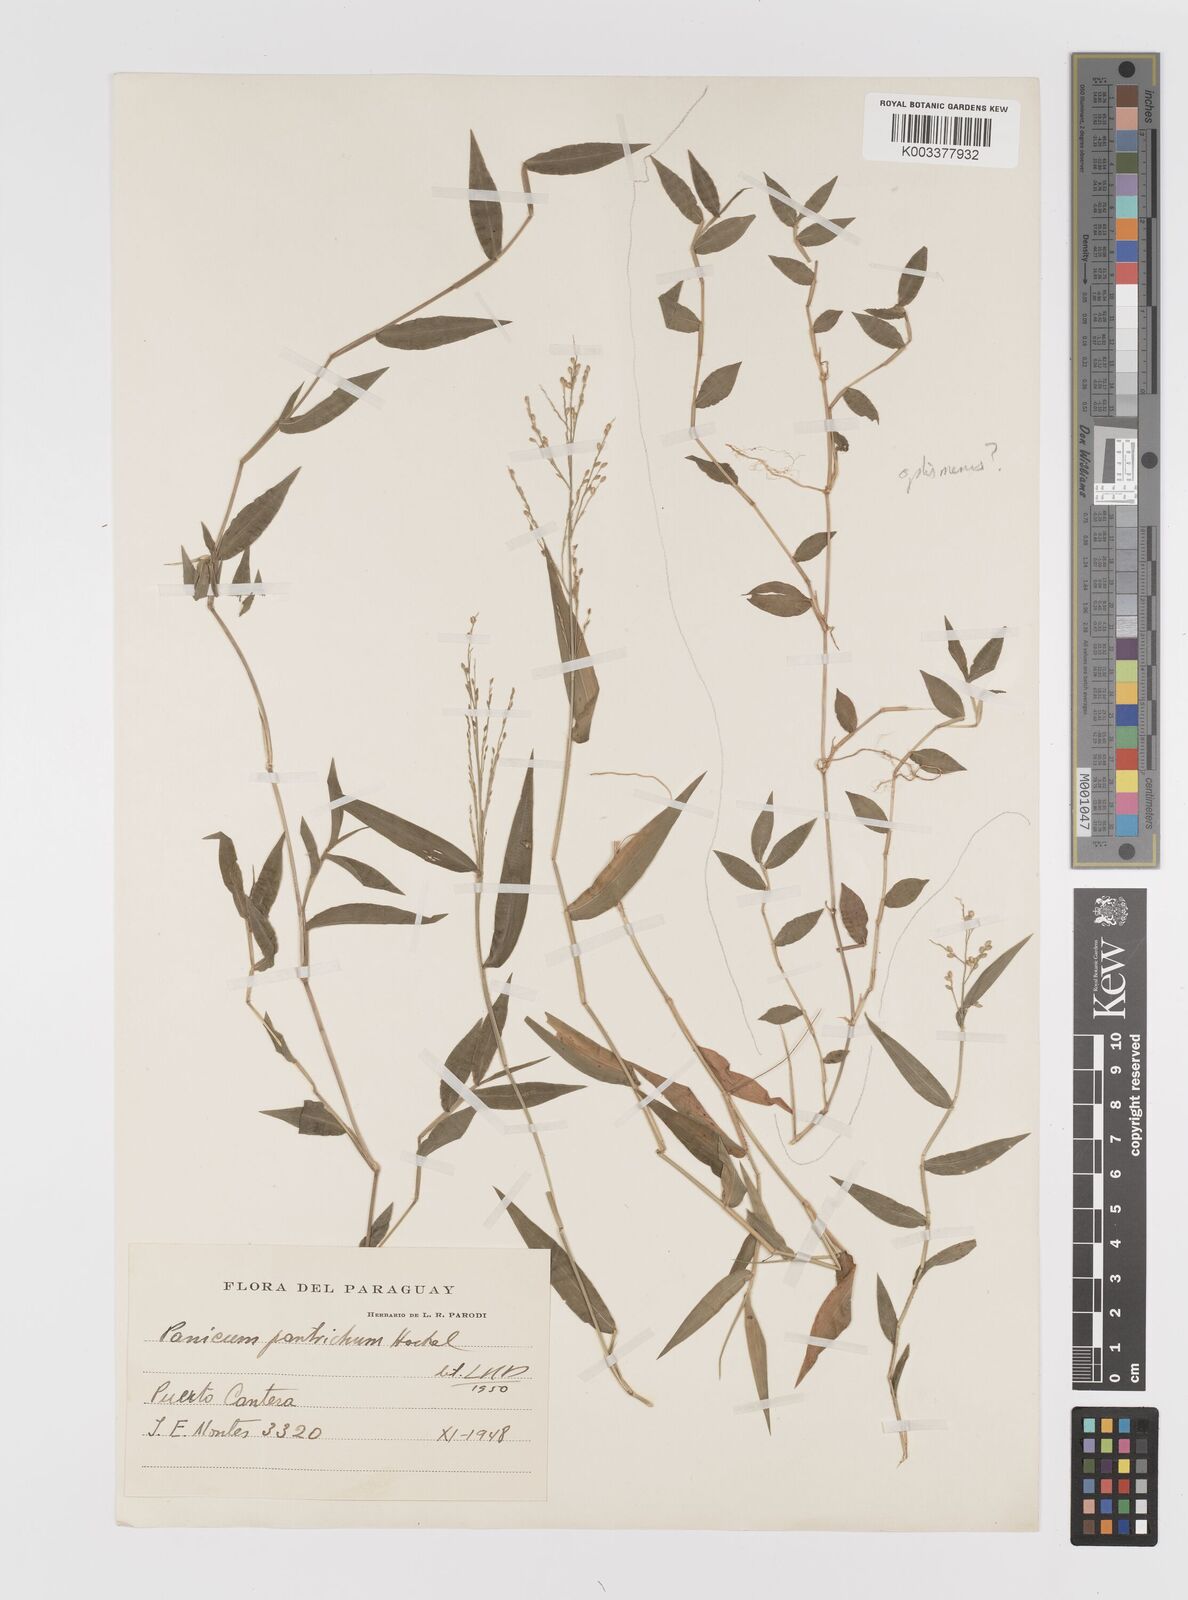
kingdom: Plantae
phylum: Tracheophyta
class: Liliopsida
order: Poales
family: Poaceae
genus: Parodiophyllochloa
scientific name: Parodiophyllochloa pantricha
